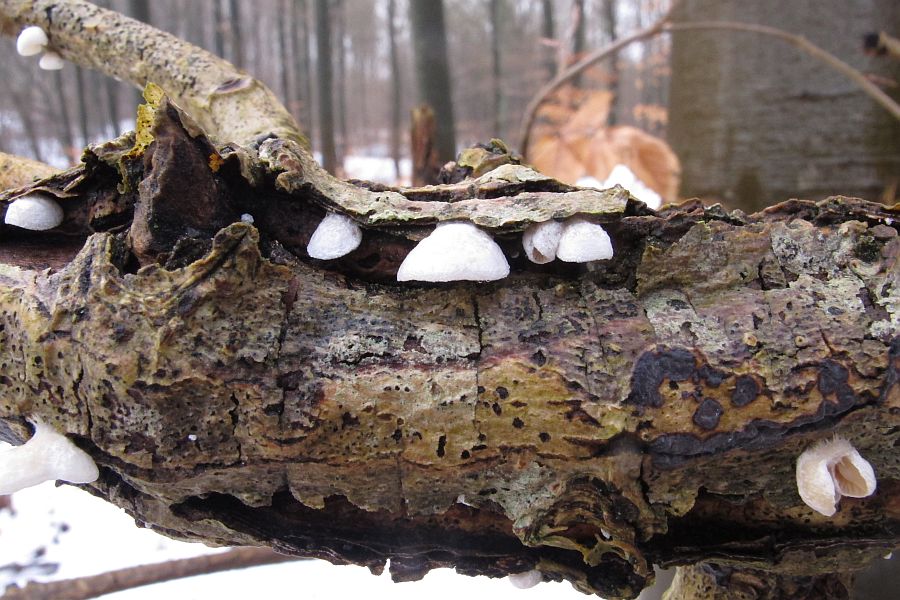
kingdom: Fungi
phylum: Basidiomycota
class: Agaricomycetes
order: Agaricales
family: Crepidotaceae
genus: Crepidotus
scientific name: Crepidotus cesatii
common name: almindelig muslingesvamp
